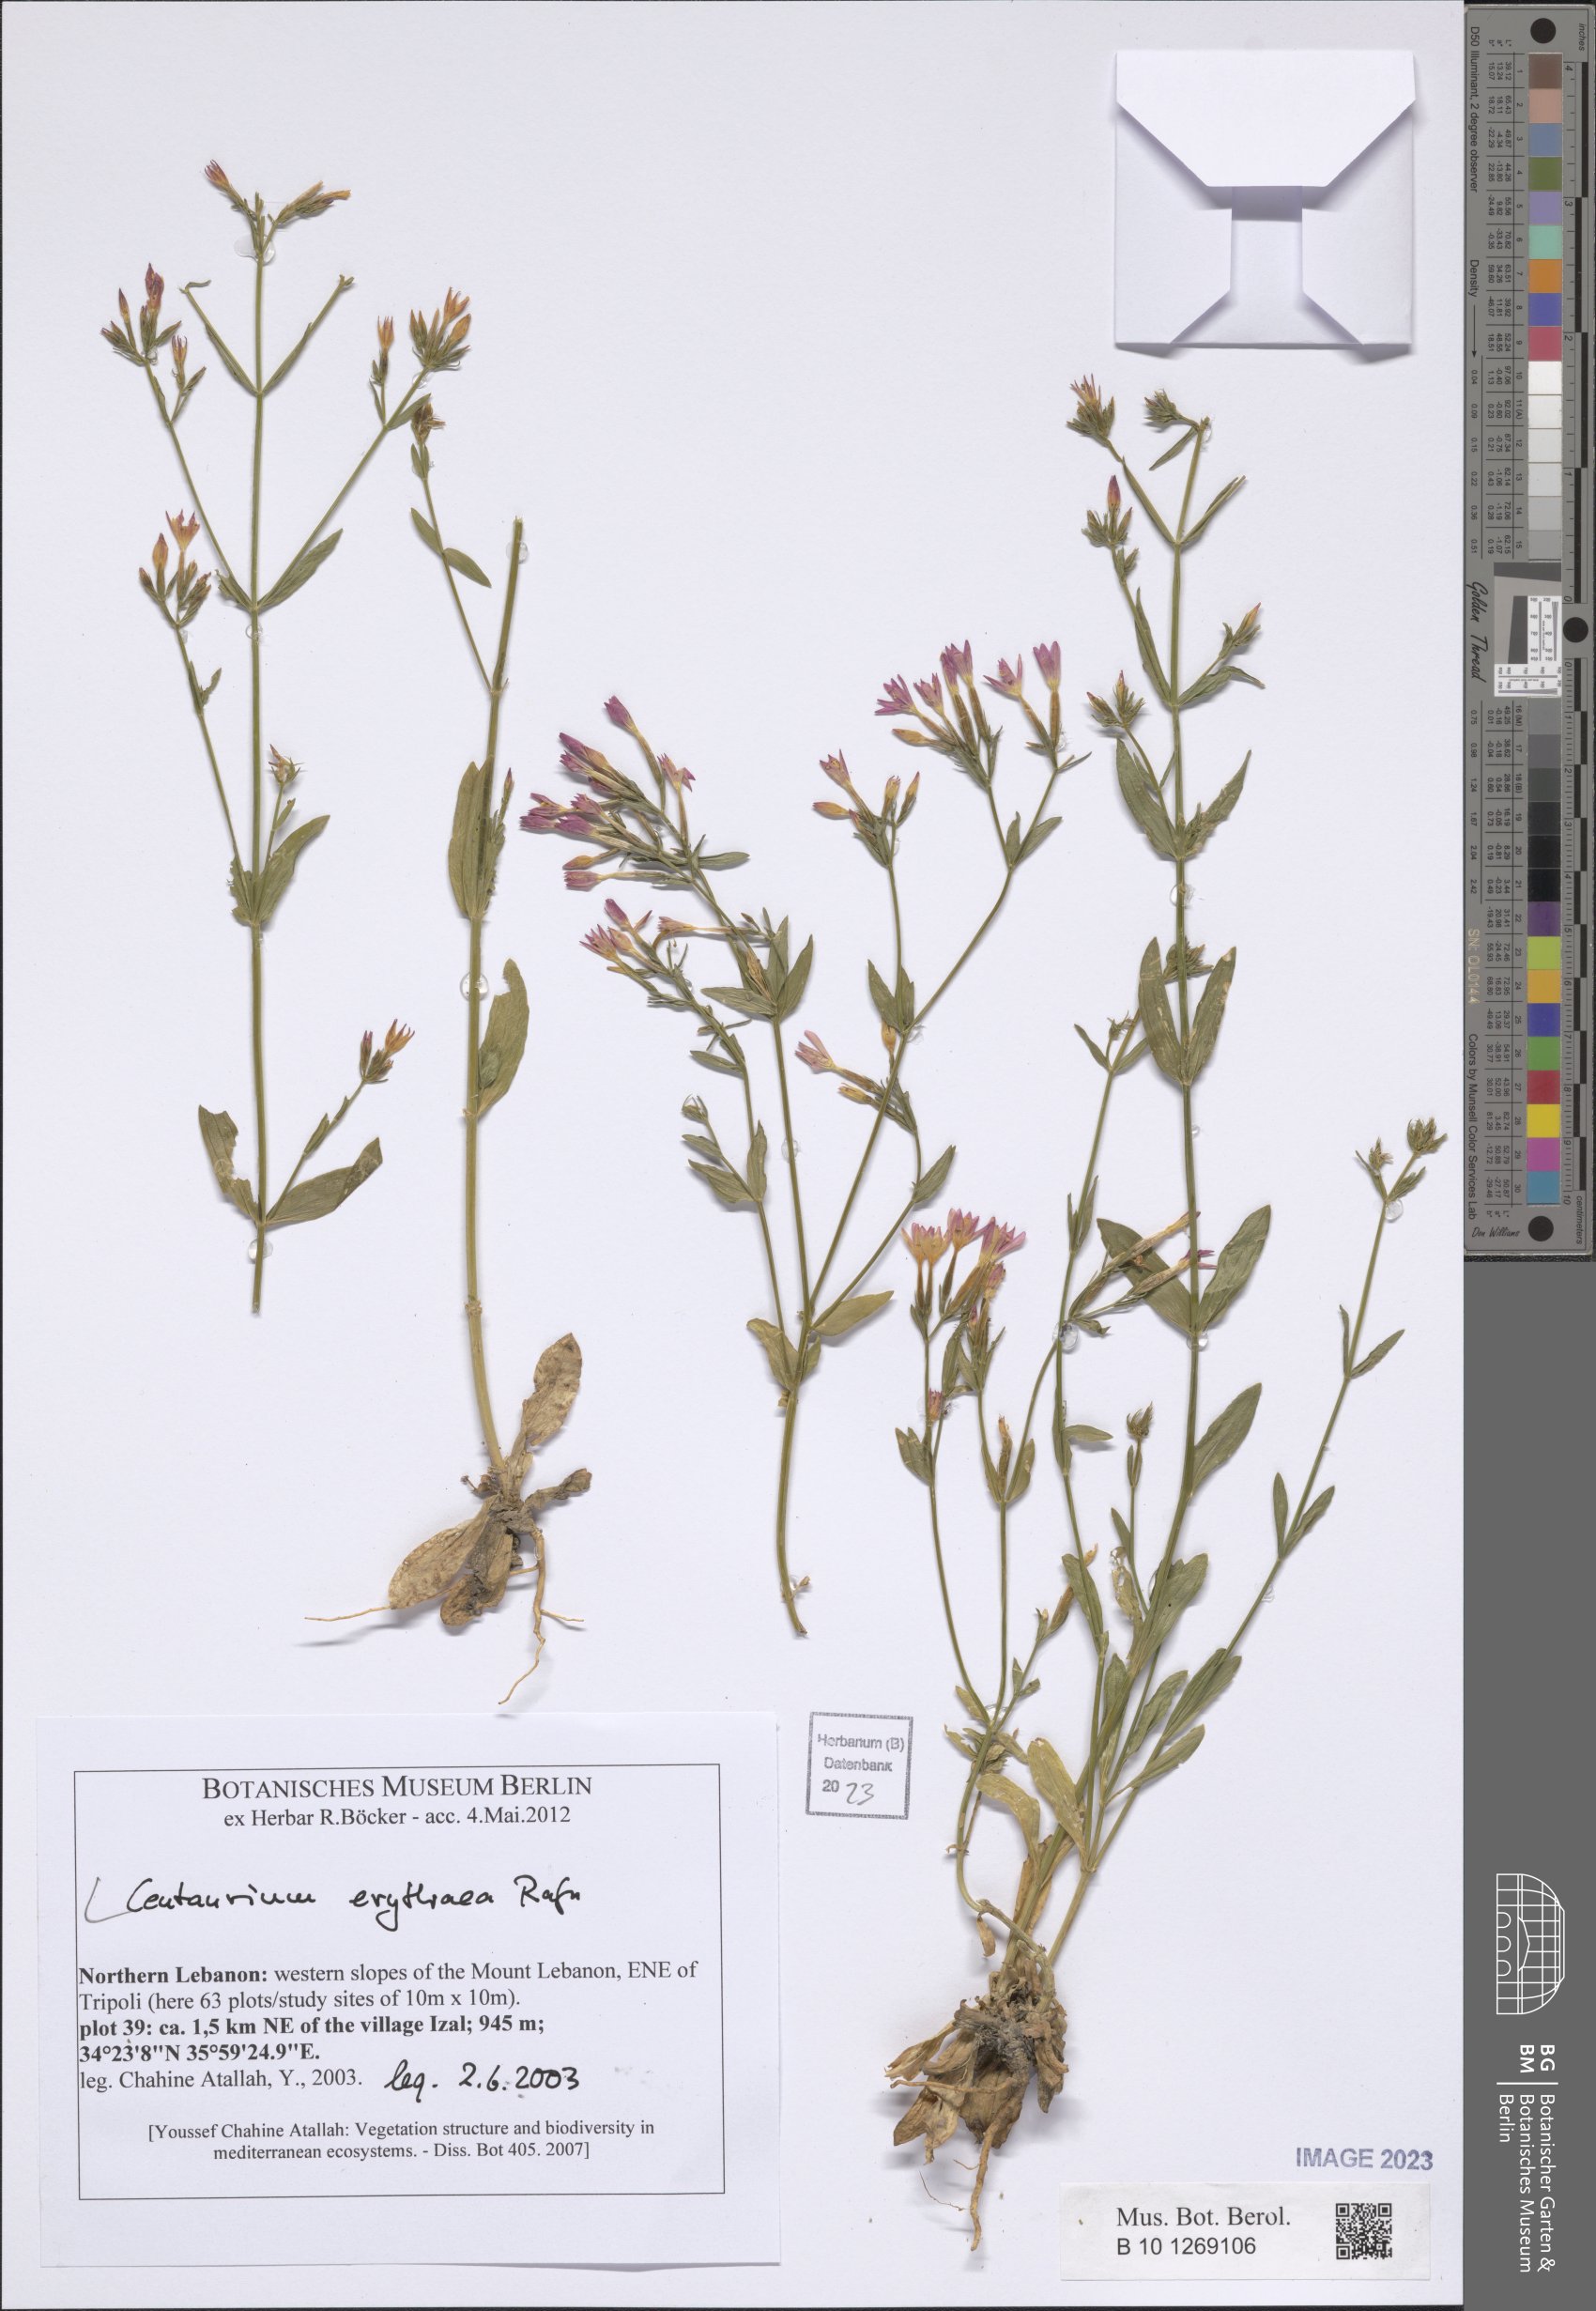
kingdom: Plantae
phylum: Tracheophyta
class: Magnoliopsida
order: Gentianales
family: Gentianaceae
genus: Centaurium
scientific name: Centaurium erythraea
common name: Common centaury
